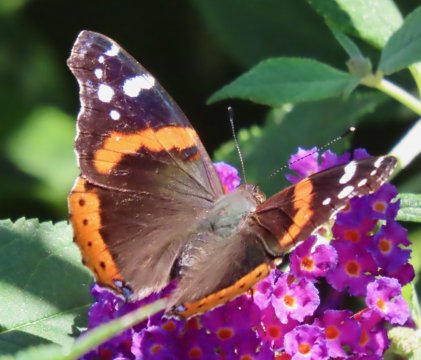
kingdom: Animalia
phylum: Arthropoda
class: Insecta
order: Lepidoptera
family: Nymphalidae
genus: Vanessa
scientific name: Vanessa atalanta
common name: Red Admiral
